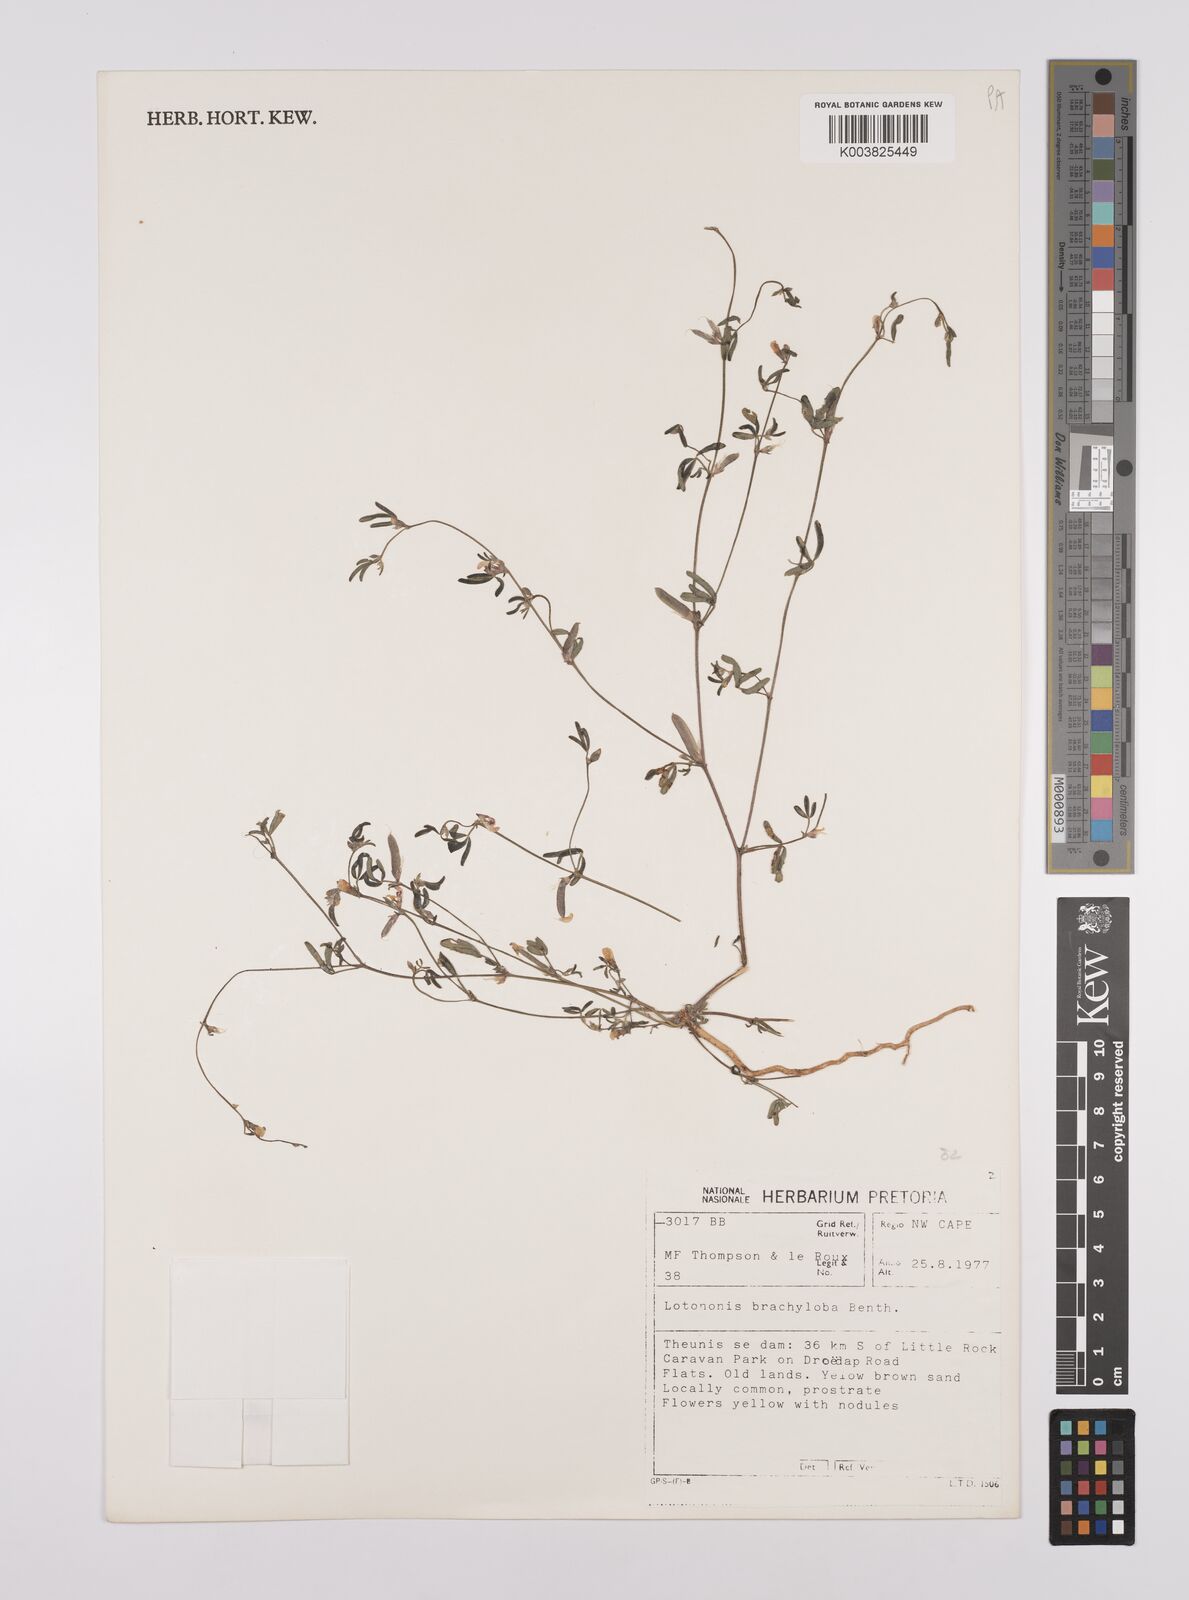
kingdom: Plantae
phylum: Tracheophyta
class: Magnoliopsida
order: Fabales
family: Fabaceae
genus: Lotononis
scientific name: Lotononis parviflora
